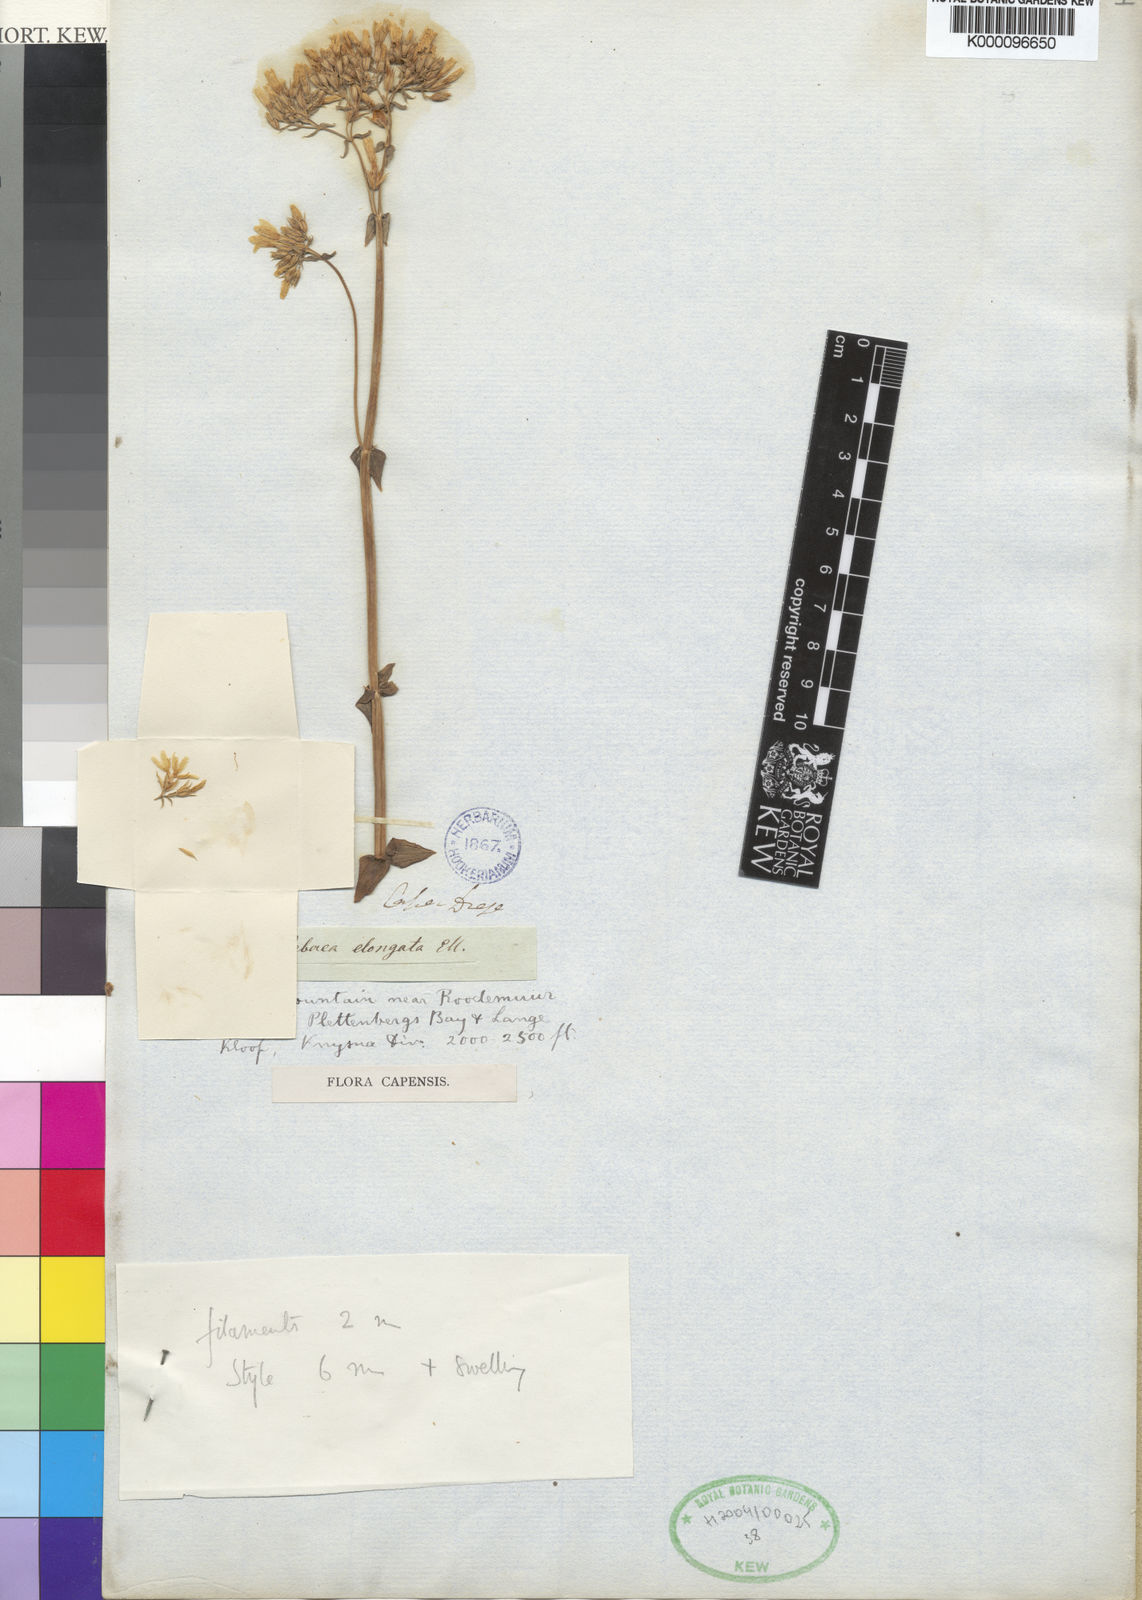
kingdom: Plantae
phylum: Tracheophyta
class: Magnoliopsida
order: Gentianales
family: Gentianaceae
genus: Sebaea
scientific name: Sebaea
